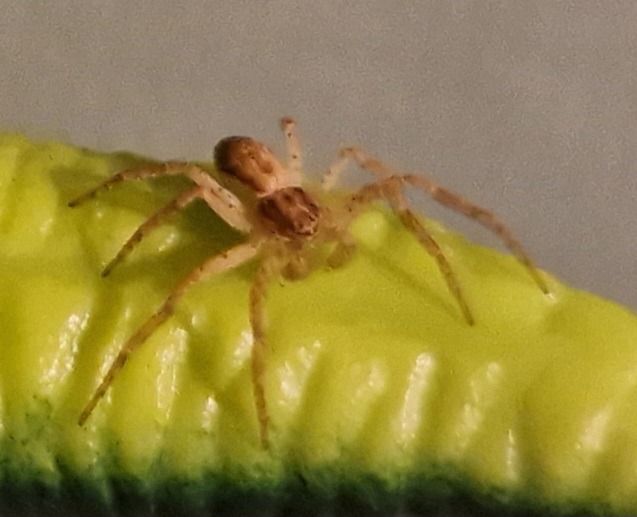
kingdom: Animalia
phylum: Arthropoda
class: Arachnida
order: Araneae
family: Philodromidae
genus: Philodromus
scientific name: Philodromus dispar
